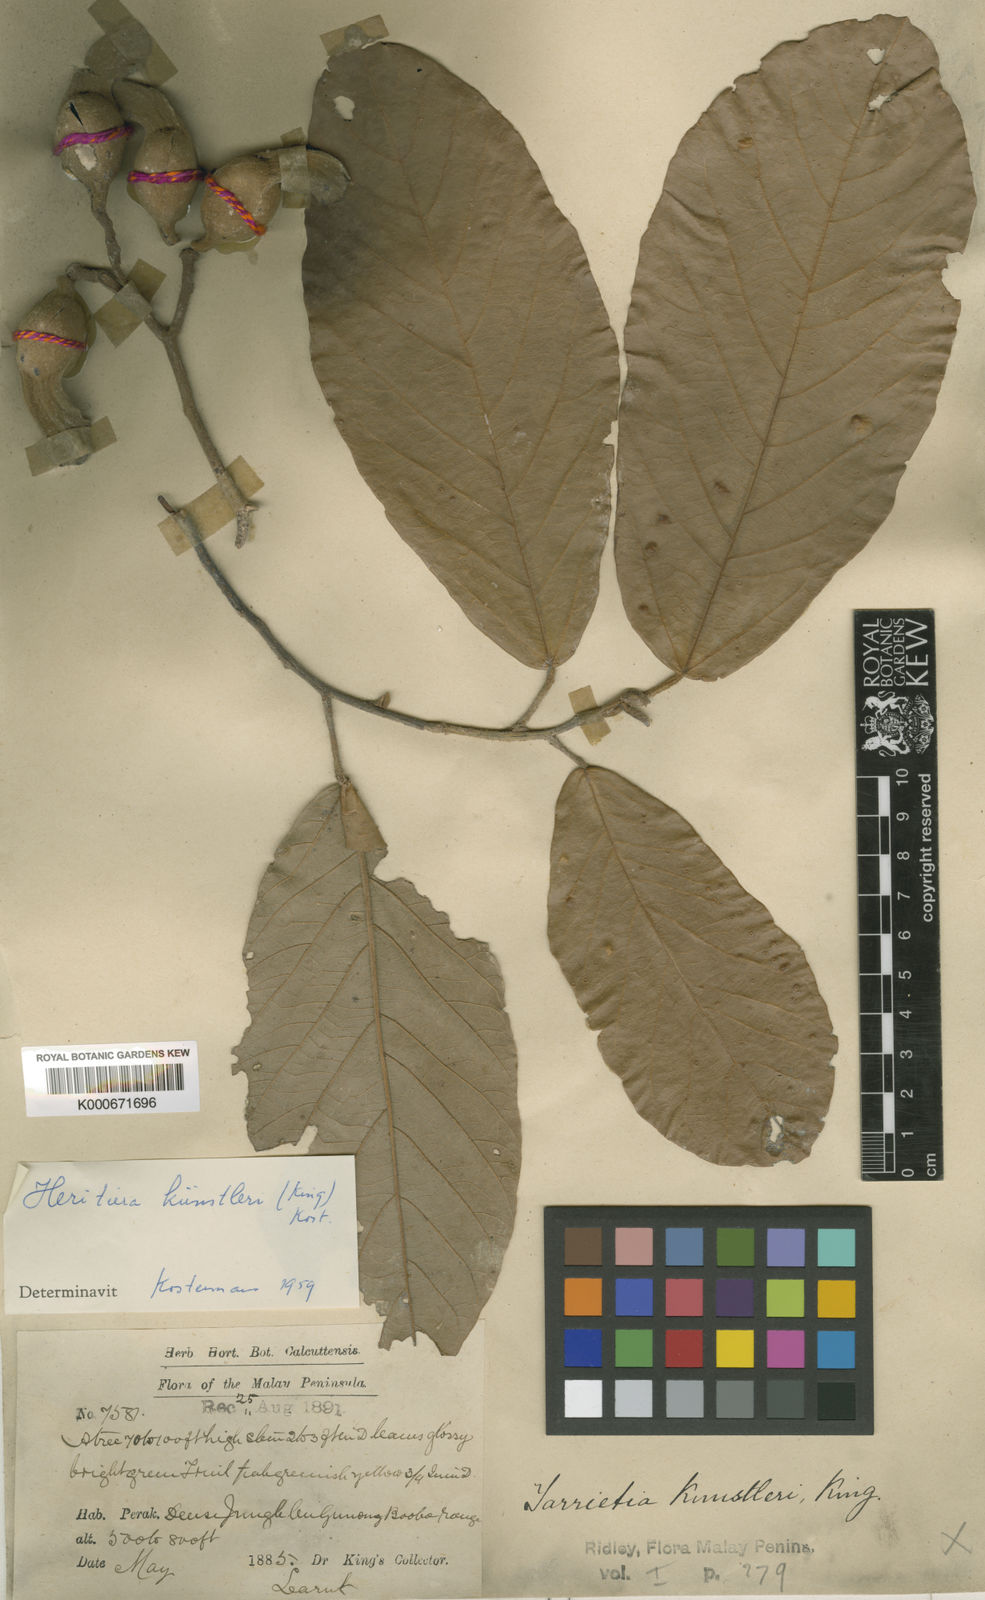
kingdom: Plantae
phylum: Tracheophyta
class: Magnoliopsida
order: Malvales
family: Malvaceae
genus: Heritiera
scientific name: Heritiera kuenstleri
